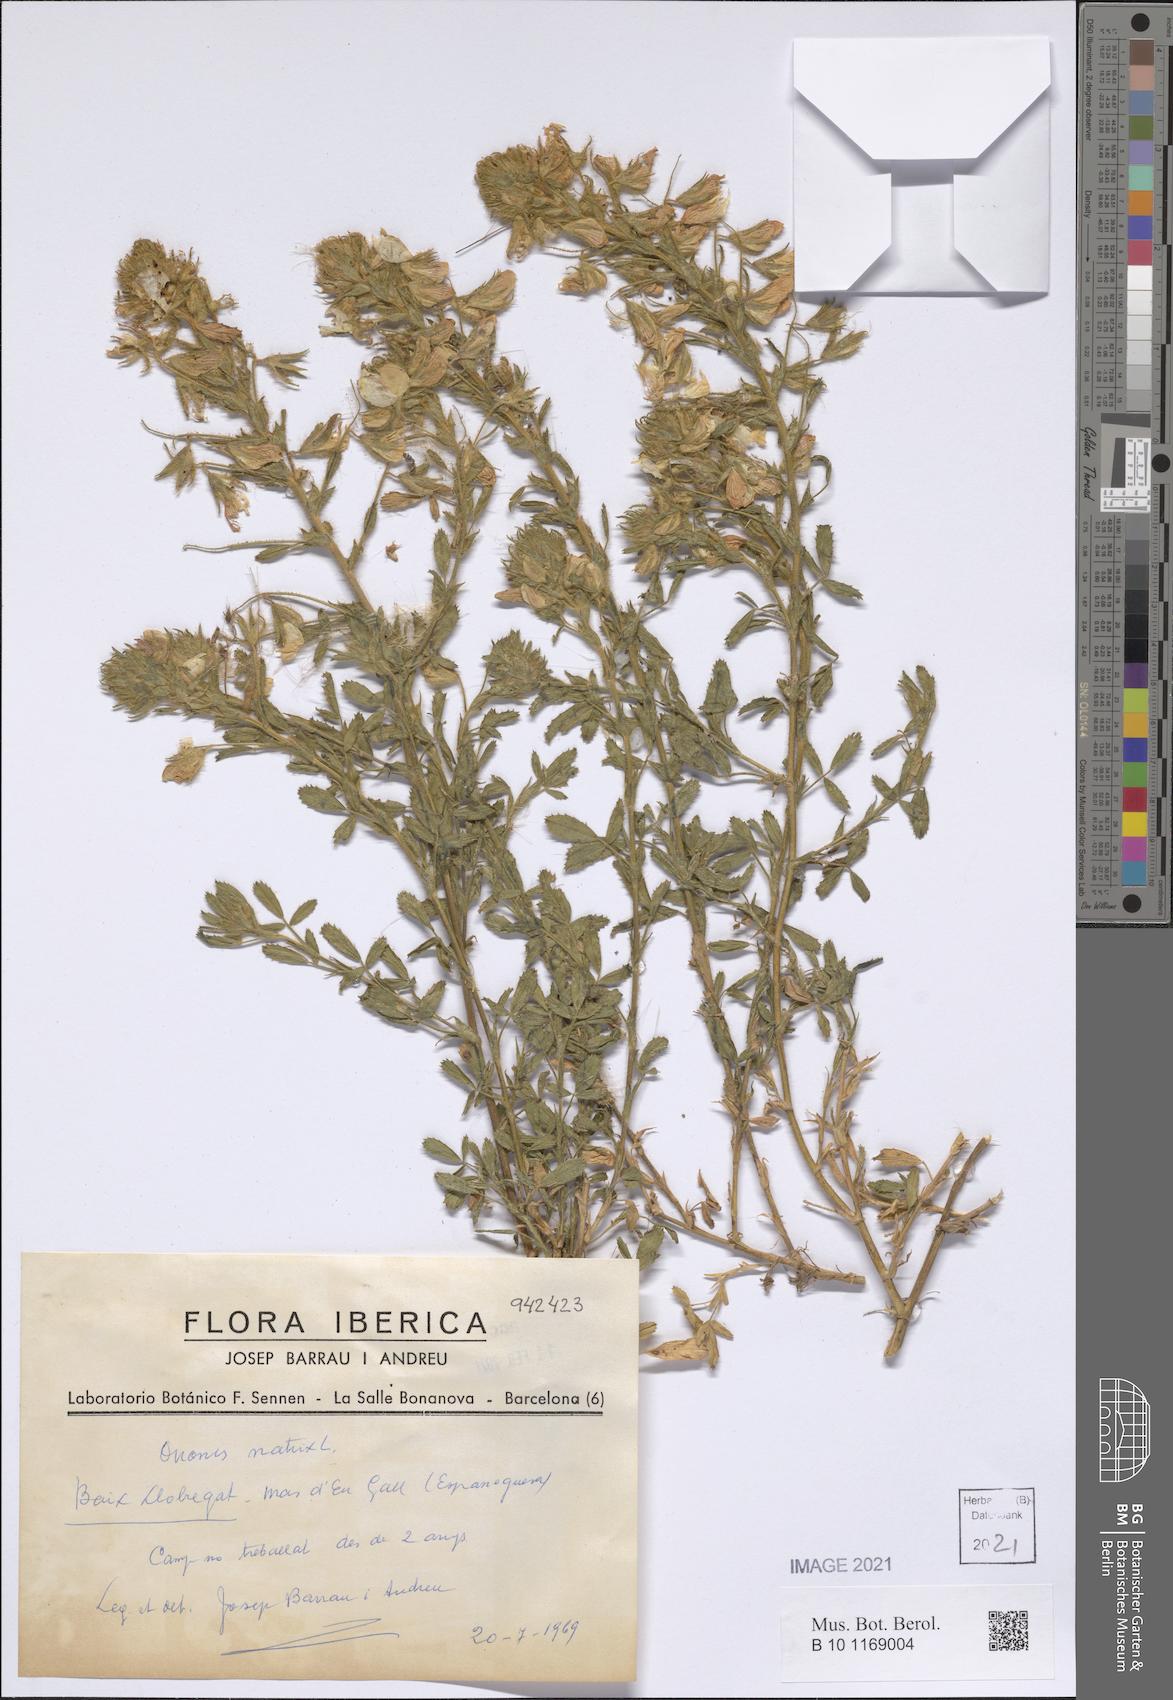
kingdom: Plantae
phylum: Tracheophyta
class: Magnoliopsida
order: Fabales
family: Fabaceae
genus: Ononis
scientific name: Ononis natrix
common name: Yellow restharrow
